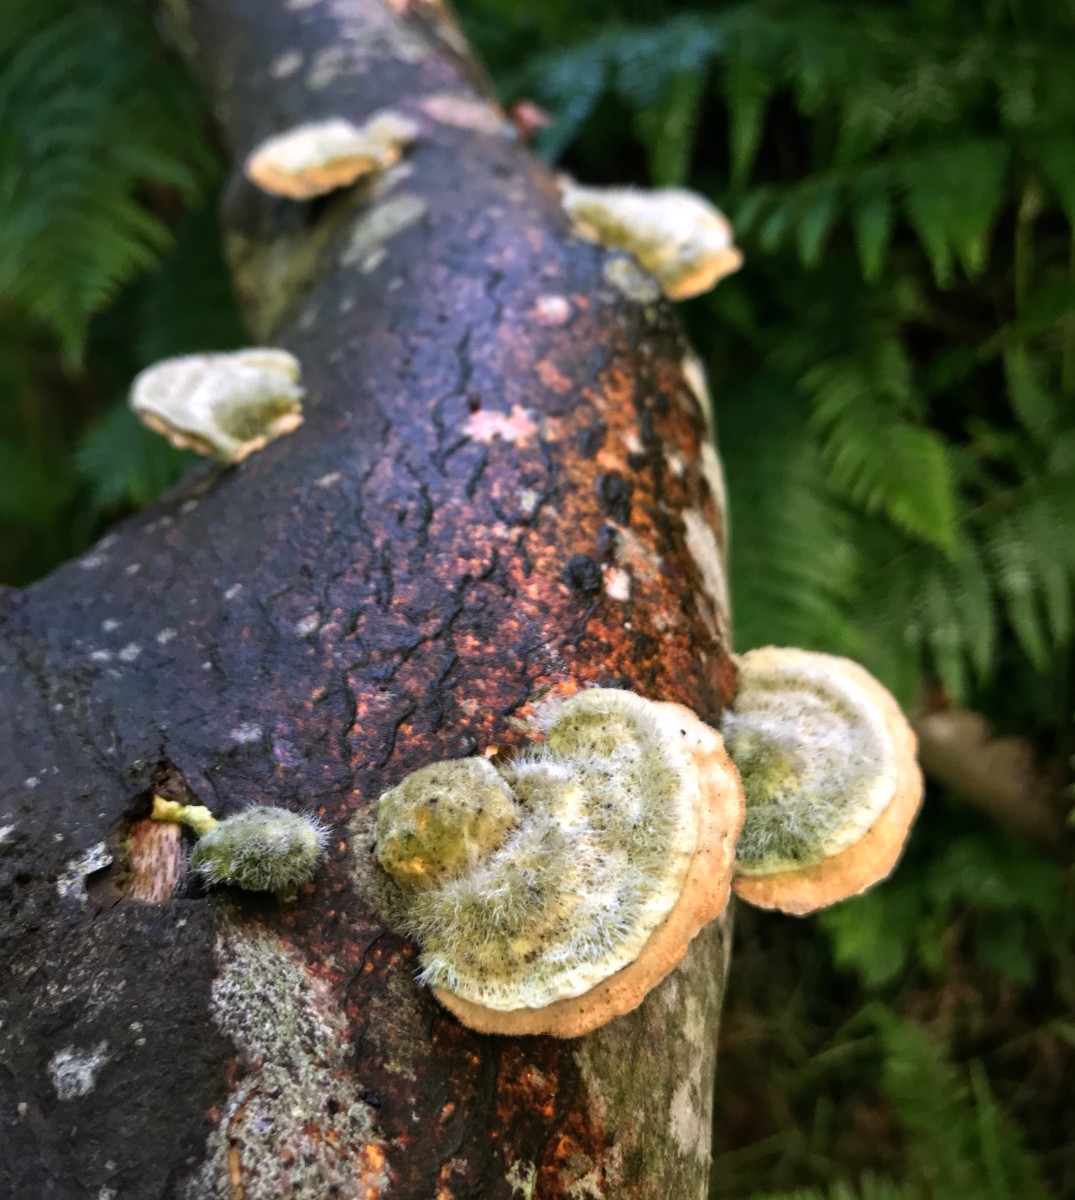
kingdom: Fungi
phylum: Basidiomycota
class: Agaricomycetes
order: Russulales
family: Stereaceae
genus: Stereum
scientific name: Stereum hirsutum
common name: håret lædersvamp
